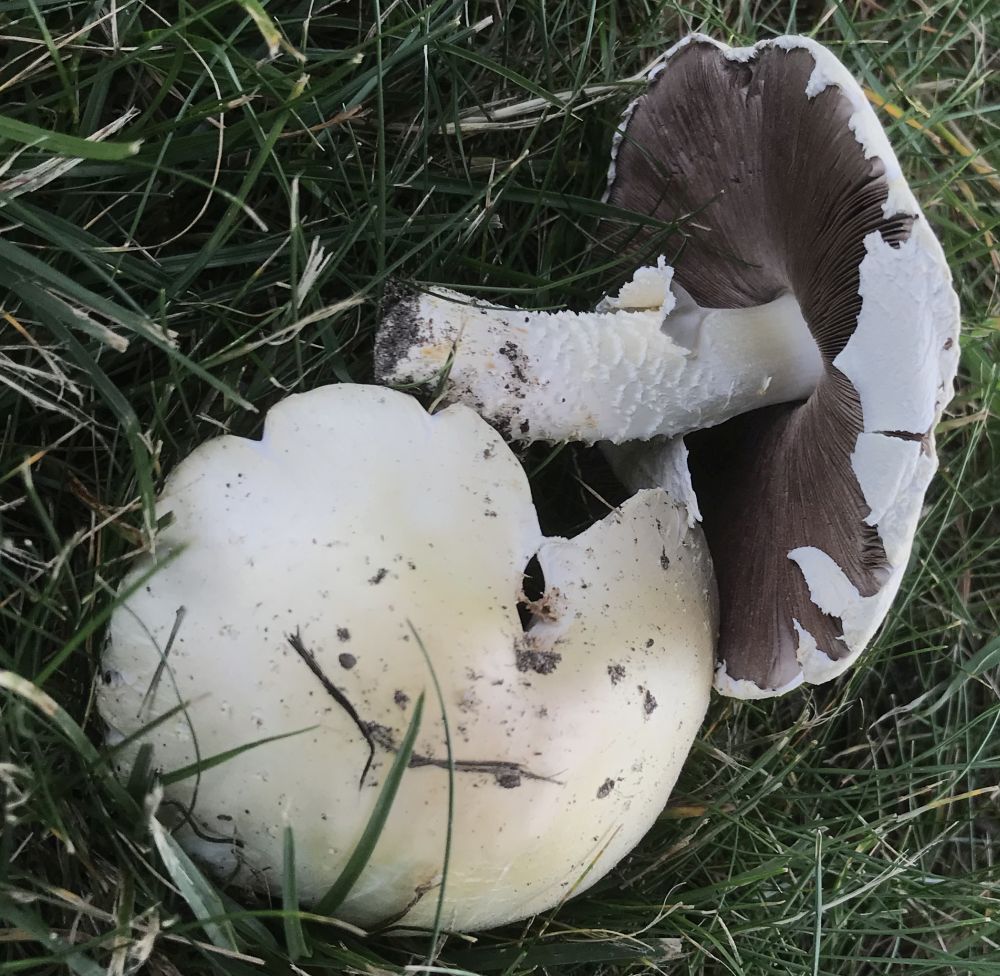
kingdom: Fungi
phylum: Basidiomycota
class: Agaricomycetes
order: Agaricales
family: Agaricaceae
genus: Agaricus
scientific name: Agaricus
